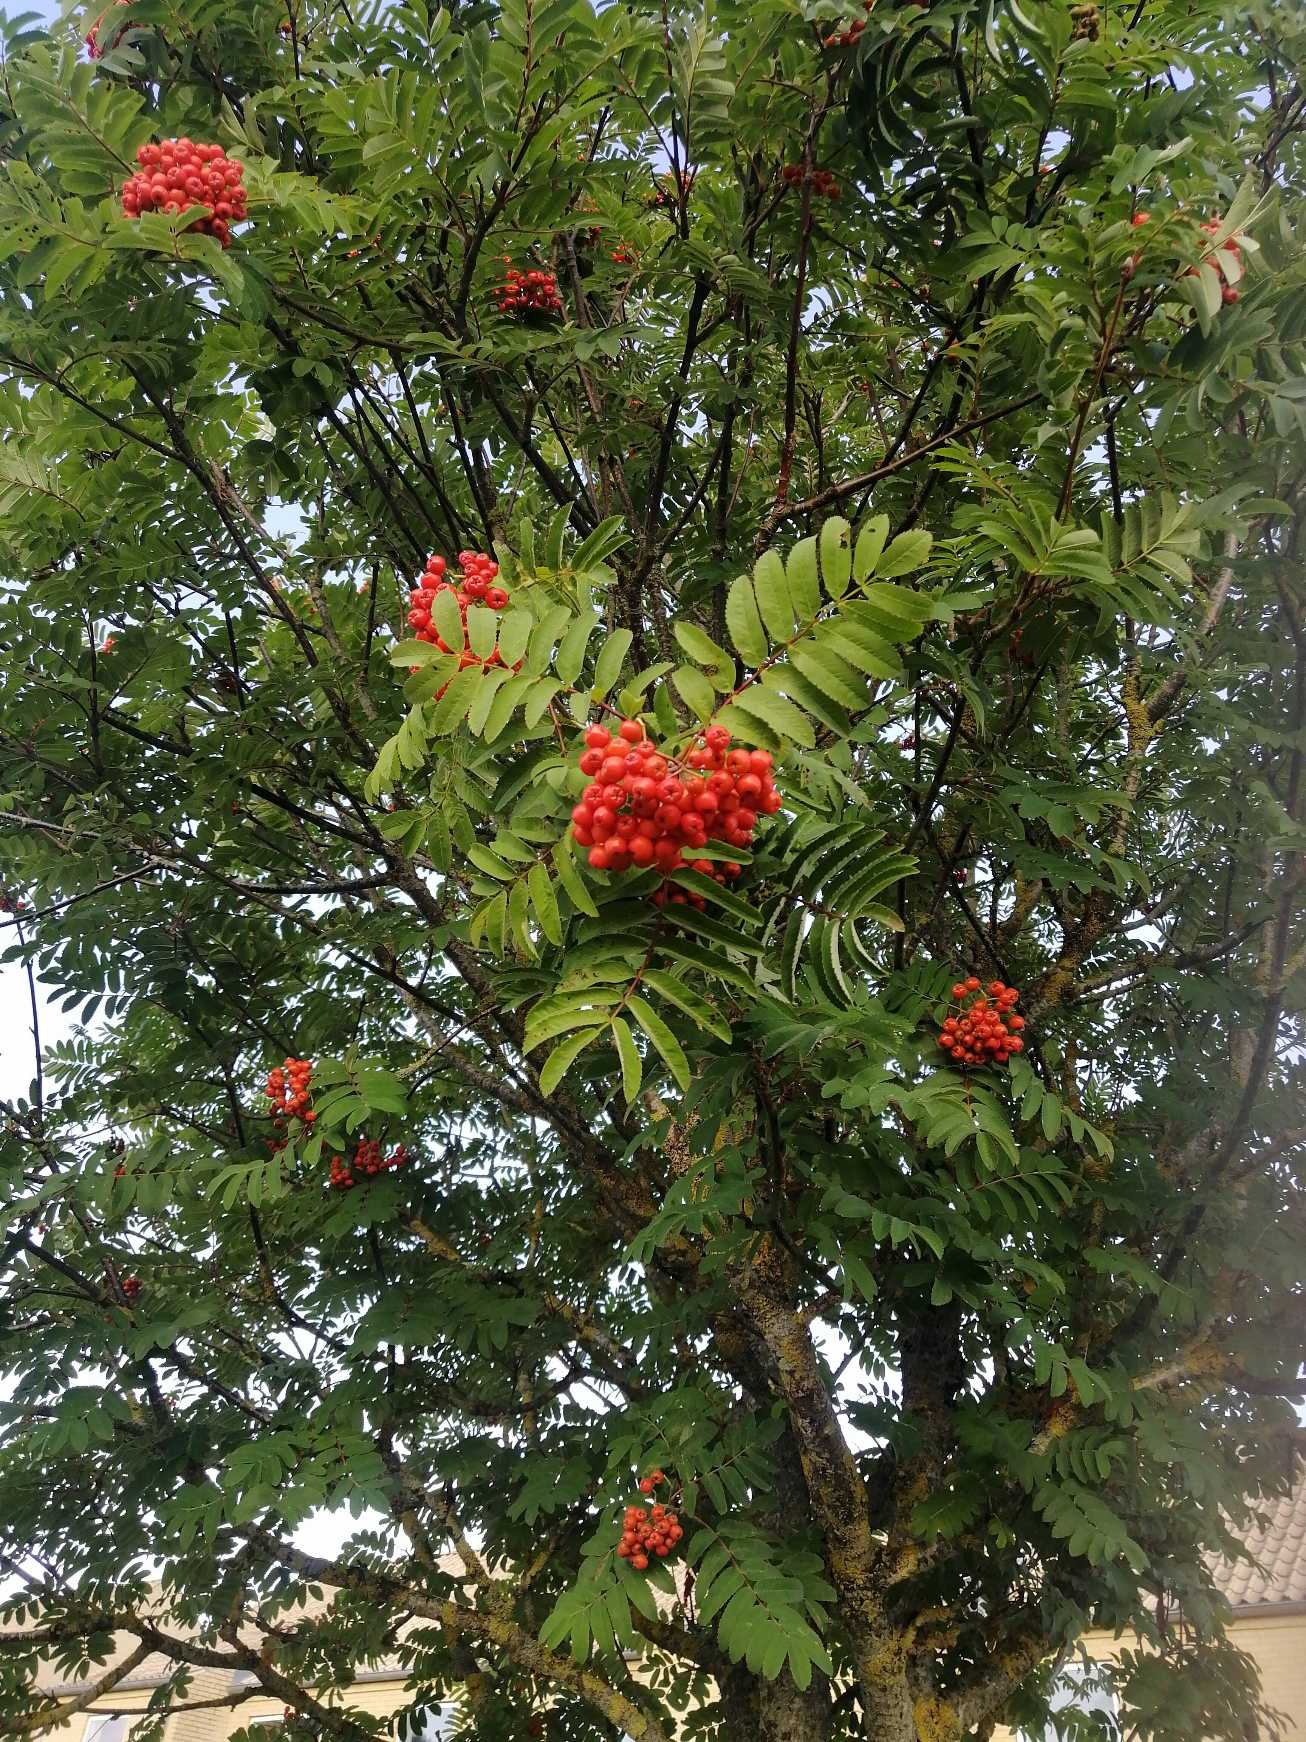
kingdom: Plantae
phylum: Tracheophyta
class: Magnoliopsida
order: Rosales
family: Rosaceae
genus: Sorbus
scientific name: Sorbus aucuparia
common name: Almindelig røn
